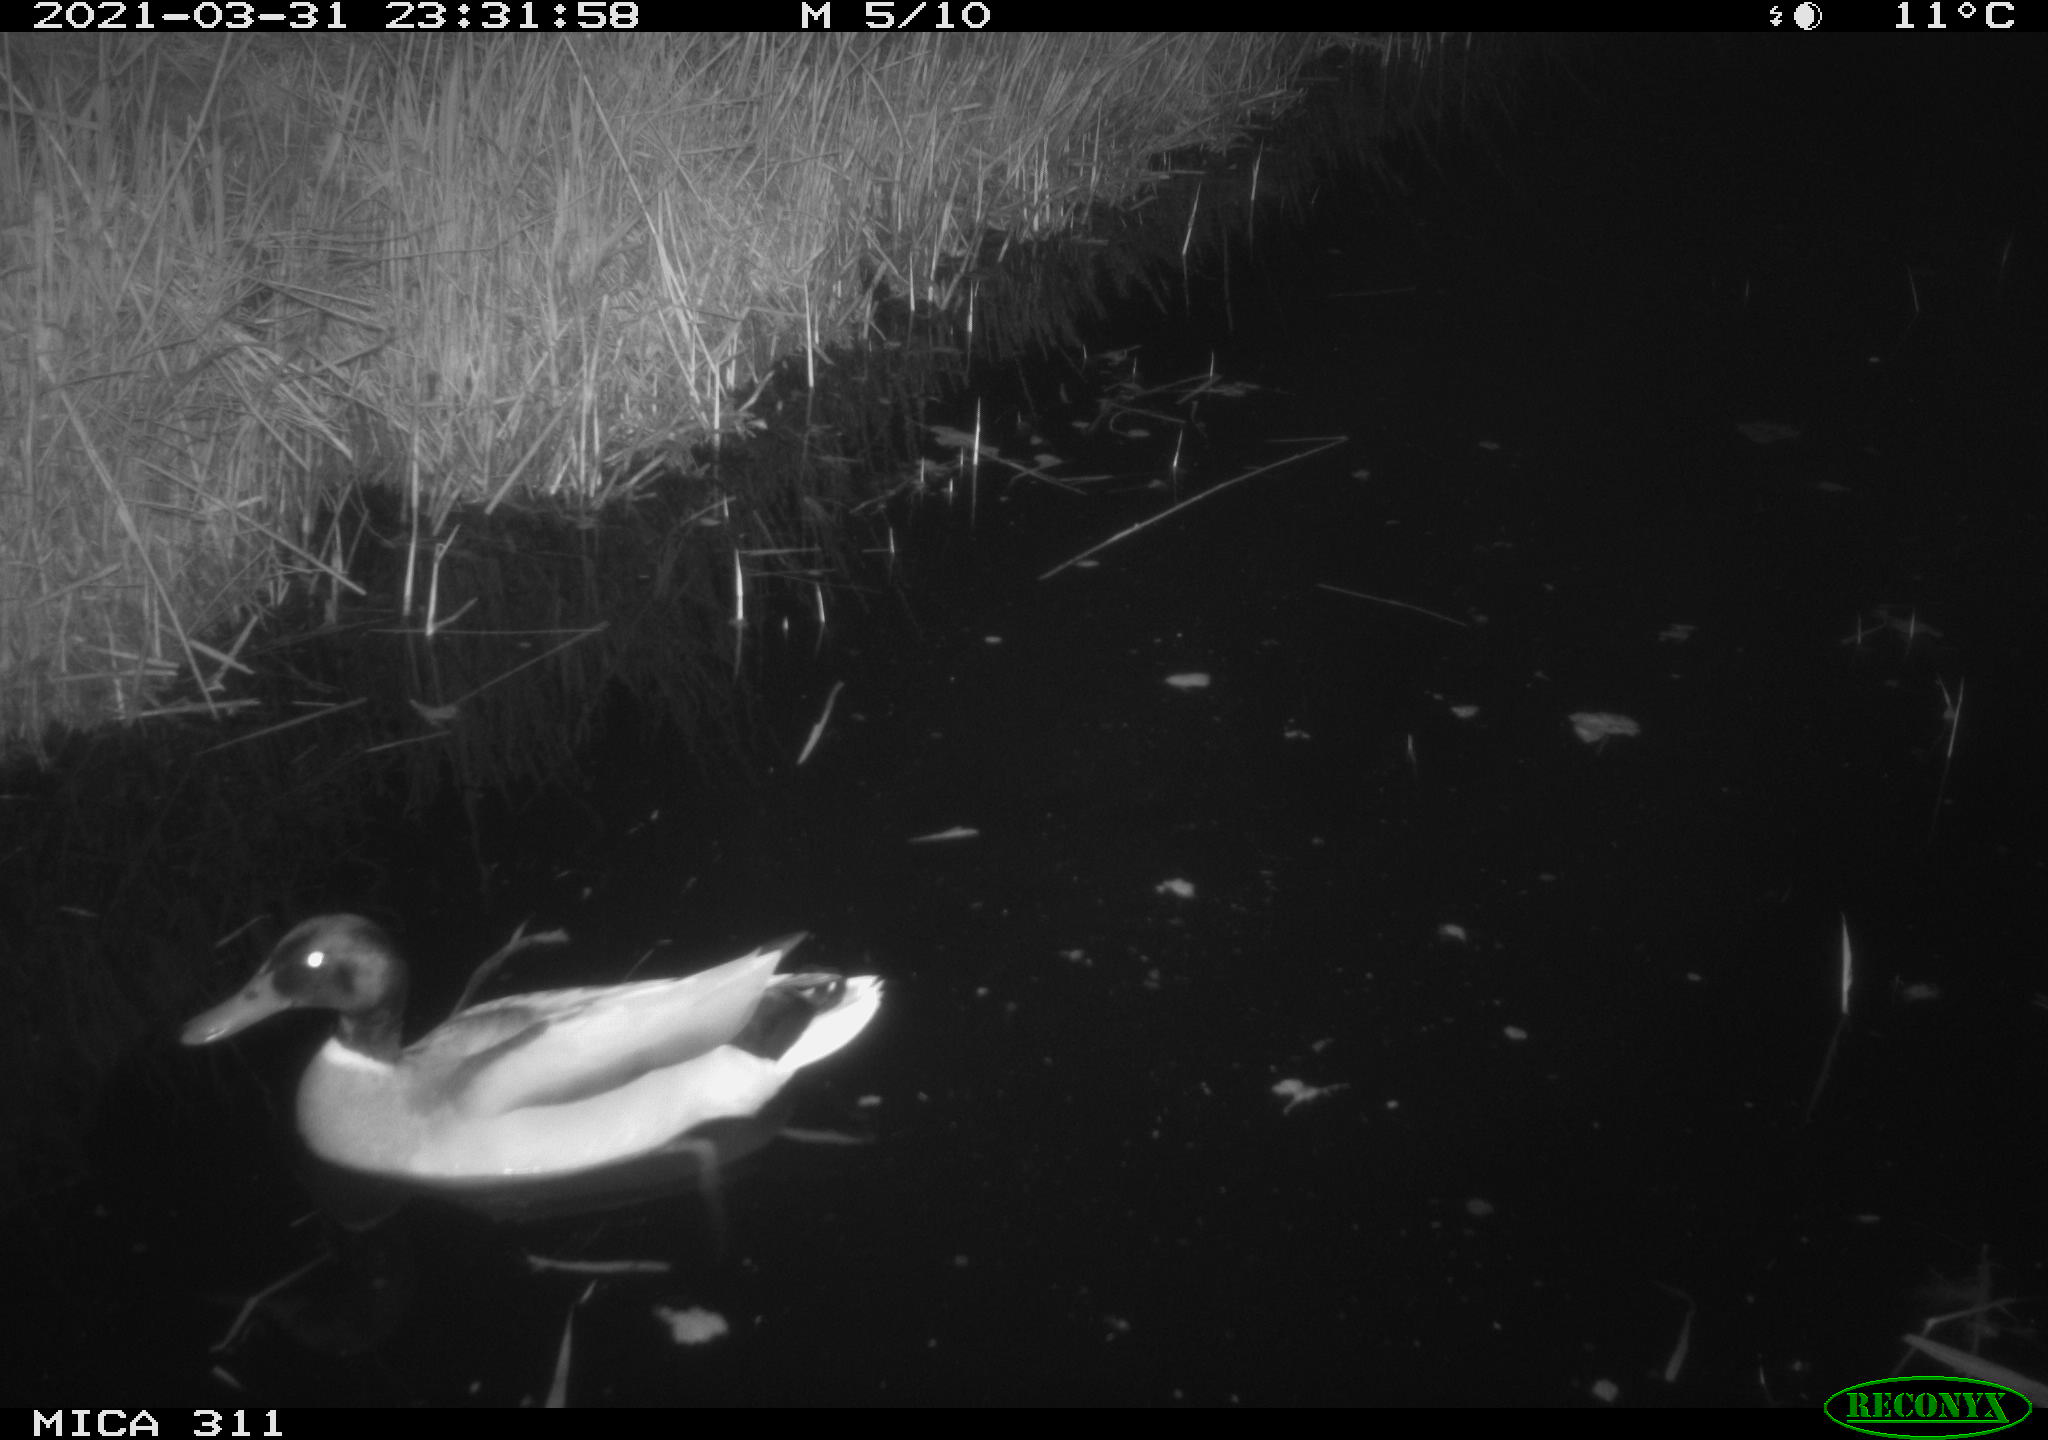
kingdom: Animalia
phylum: Chordata
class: Aves
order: Anseriformes
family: Anatidae
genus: Anas
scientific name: Anas
